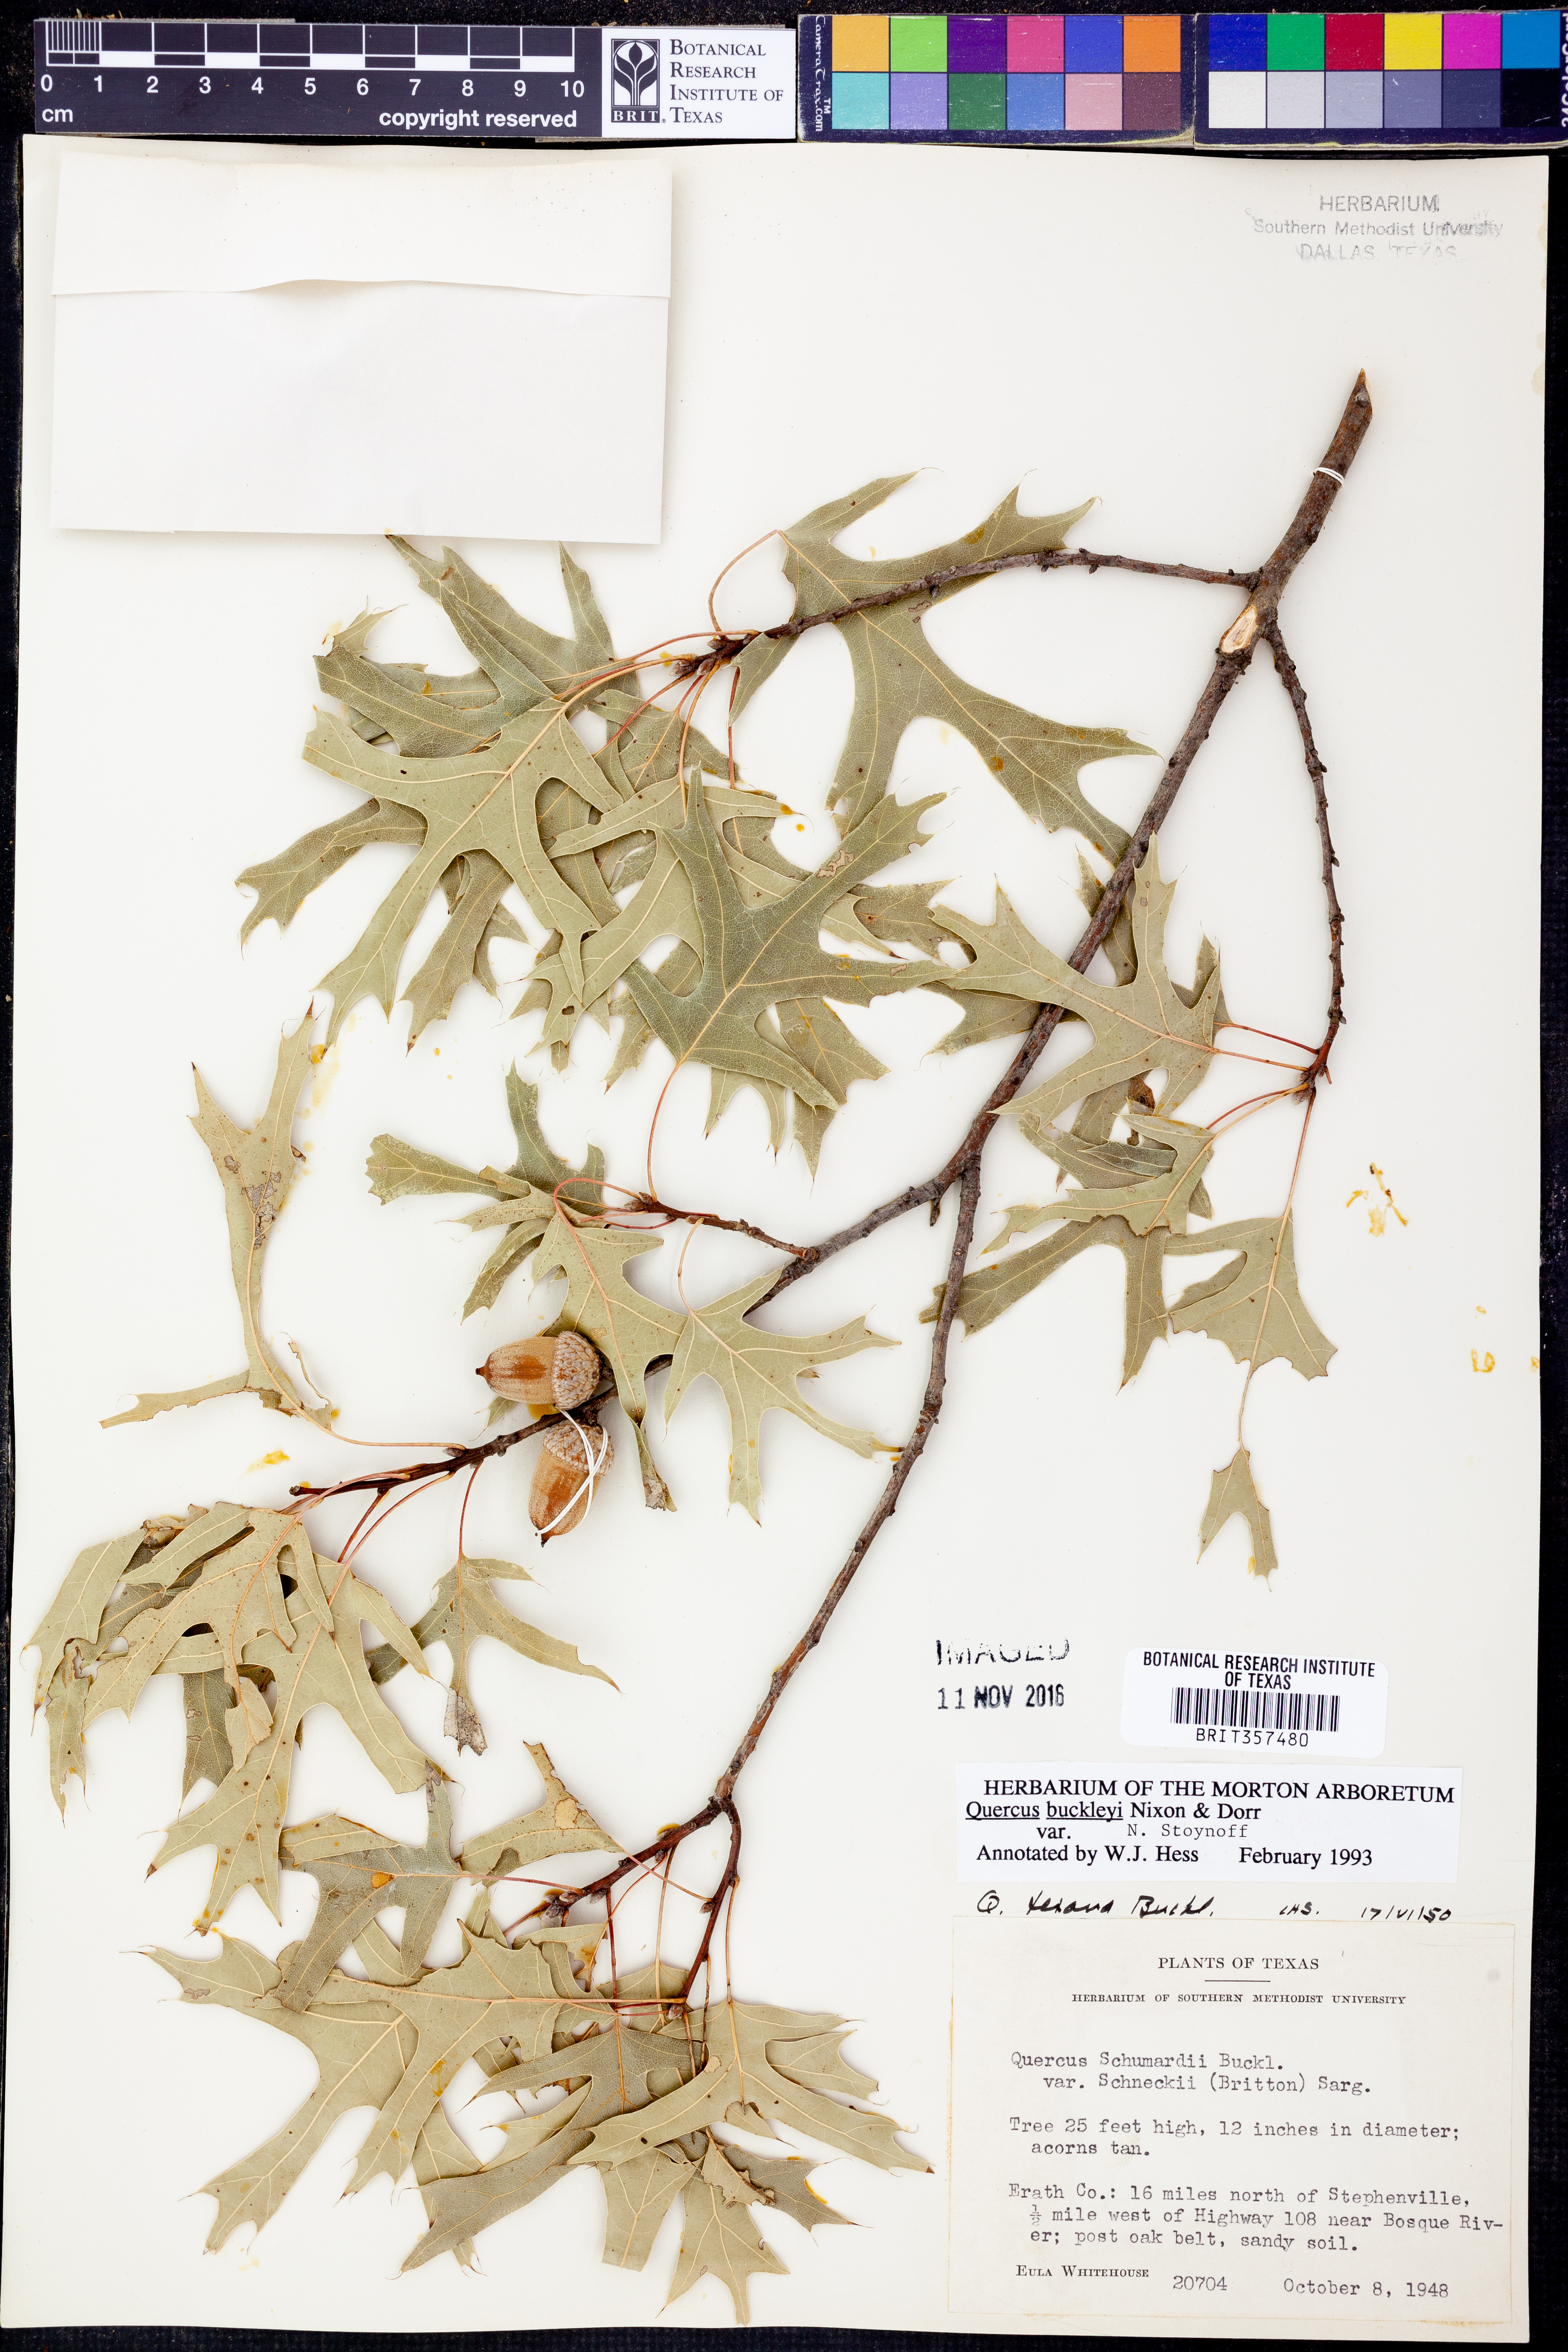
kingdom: Plantae
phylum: Tracheophyta
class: Magnoliopsida
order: Fagales
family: Fagaceae
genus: Quercus
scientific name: Quercus buckleyi
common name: Buckley oak
